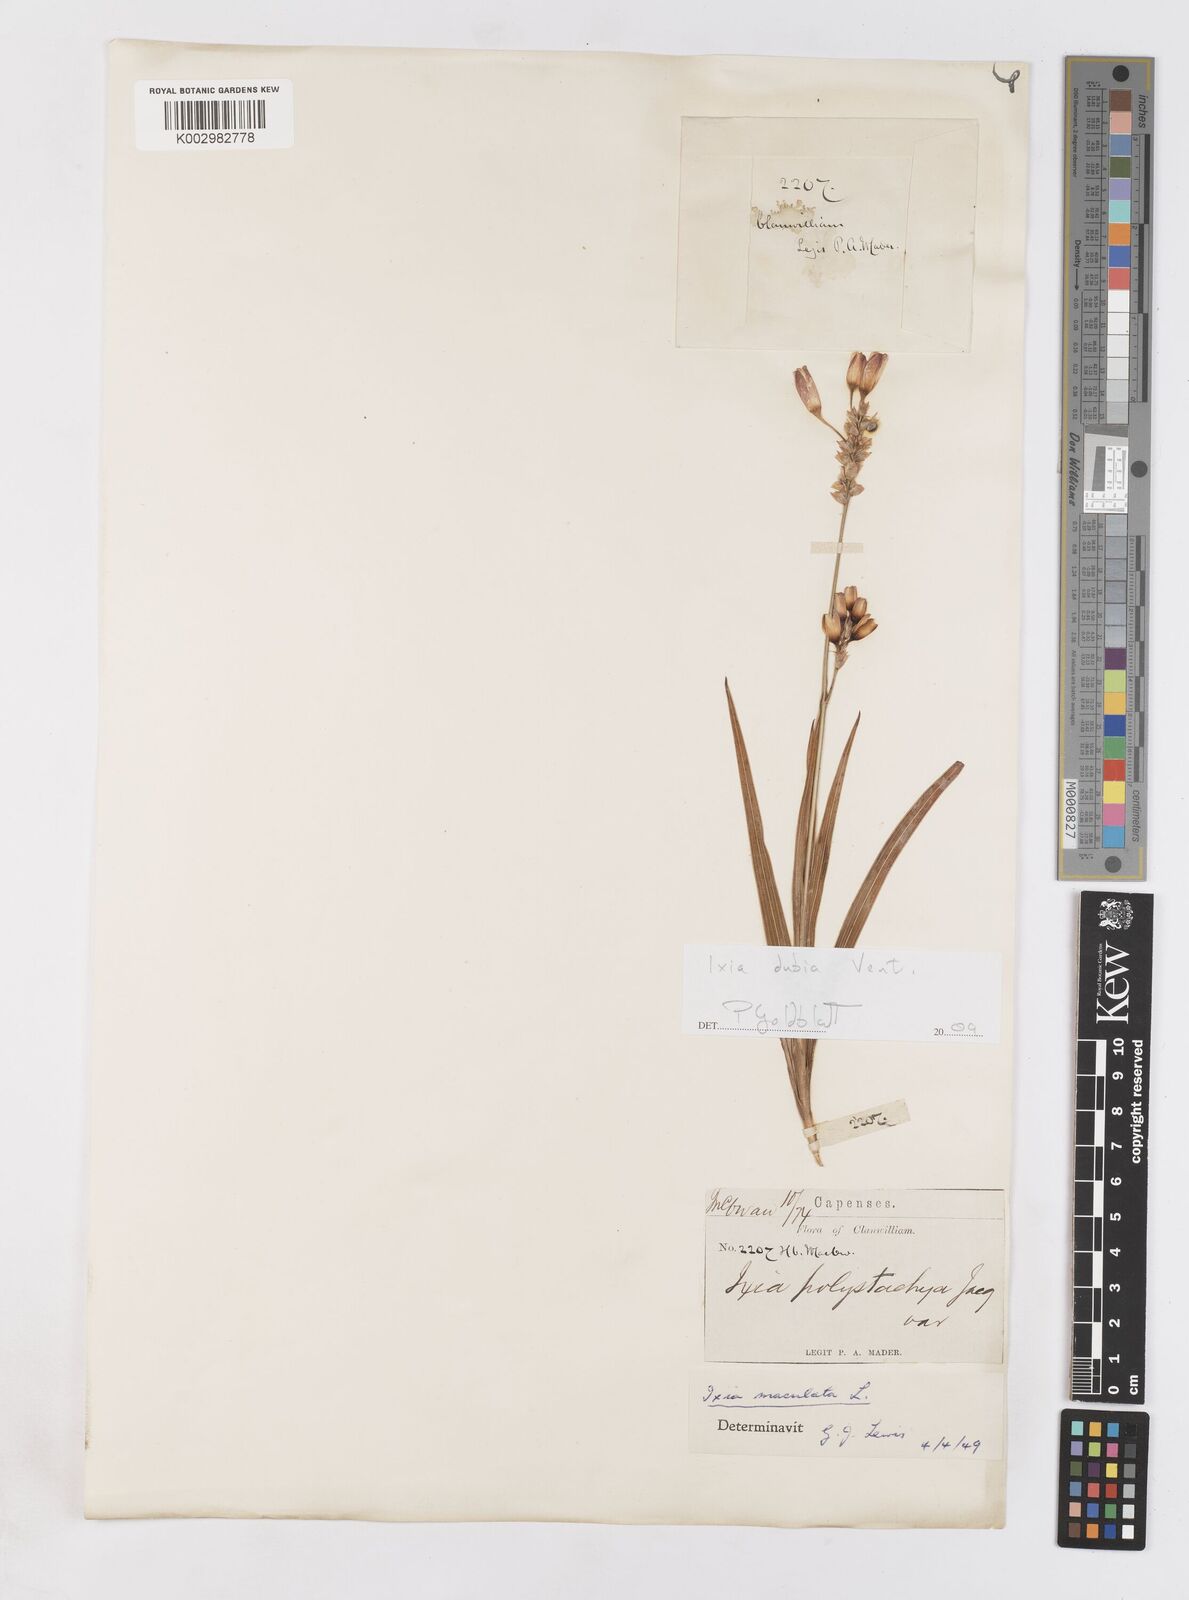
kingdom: Plantae
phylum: Tracheophyta
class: Liliopsida
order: Asparagales
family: Iridaceae
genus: Ixia
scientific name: Ixia dubia
